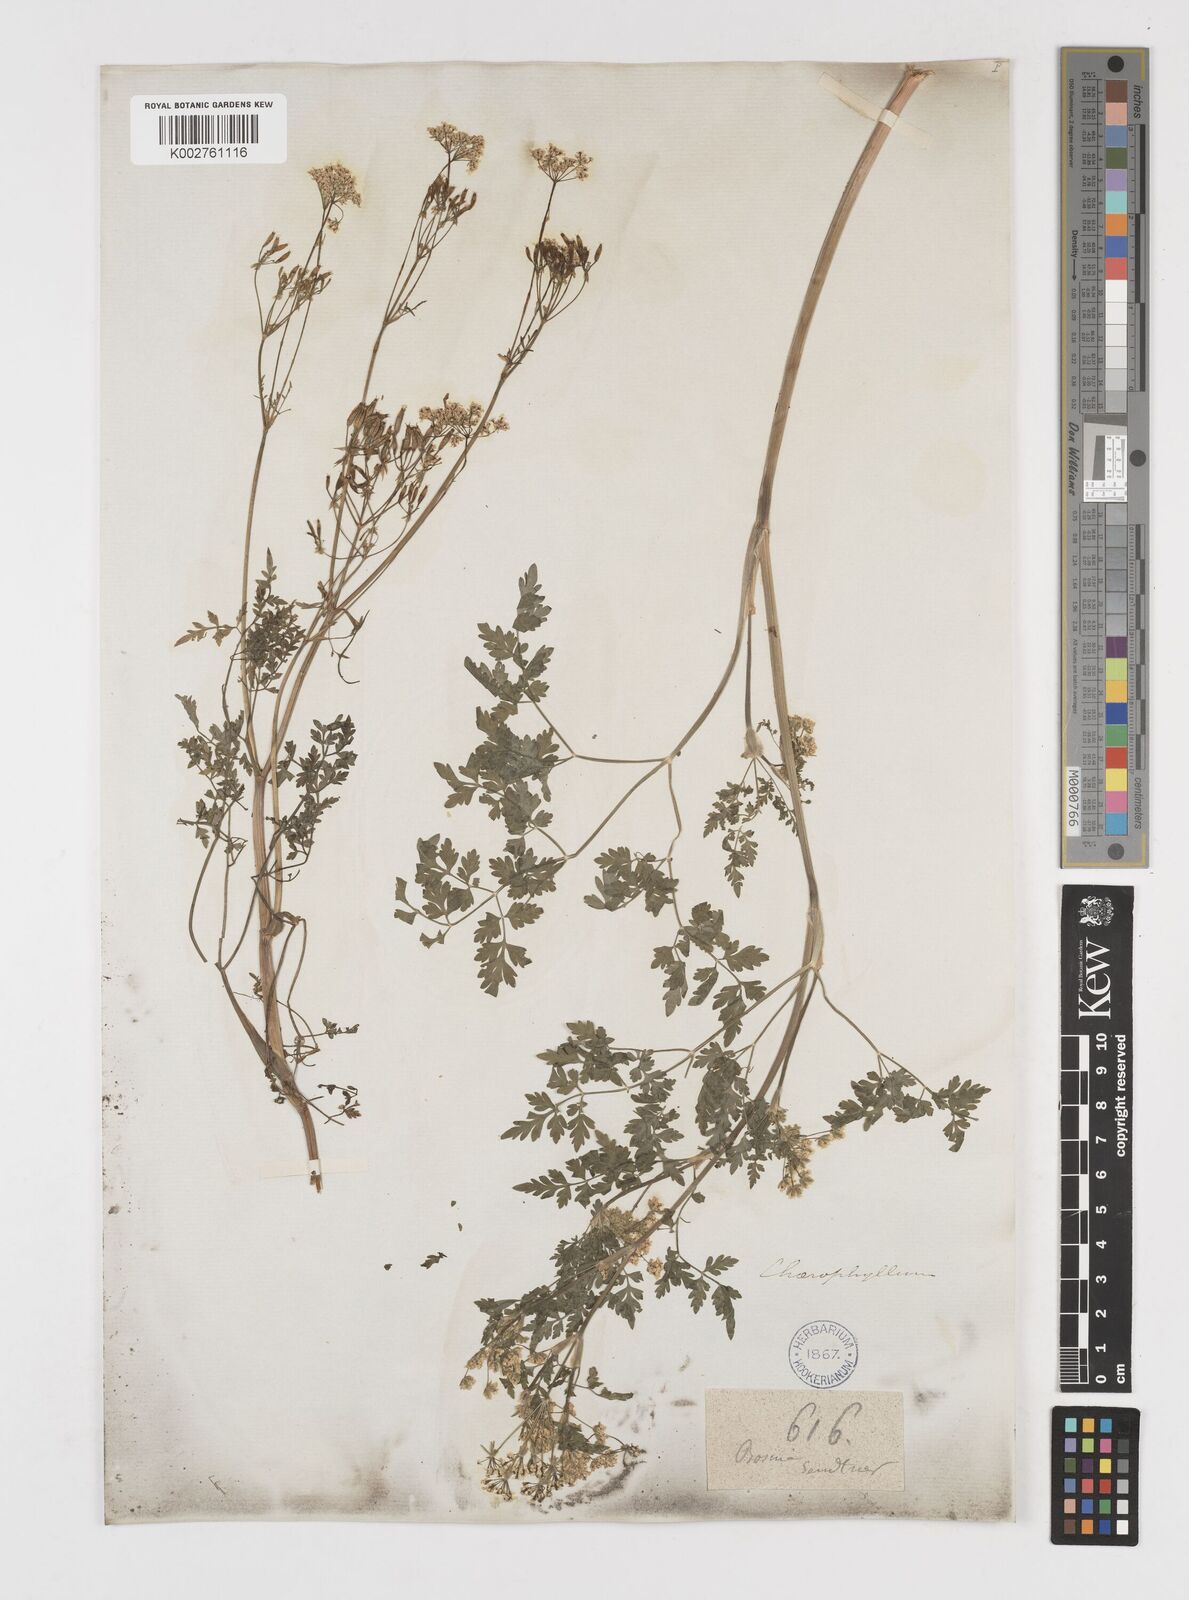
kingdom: Plantae
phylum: Tracheophyta
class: Magnoliopsida
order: Apiales
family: Apiaceae
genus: Chaerophyllum
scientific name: Chaerophyllum coloratum
